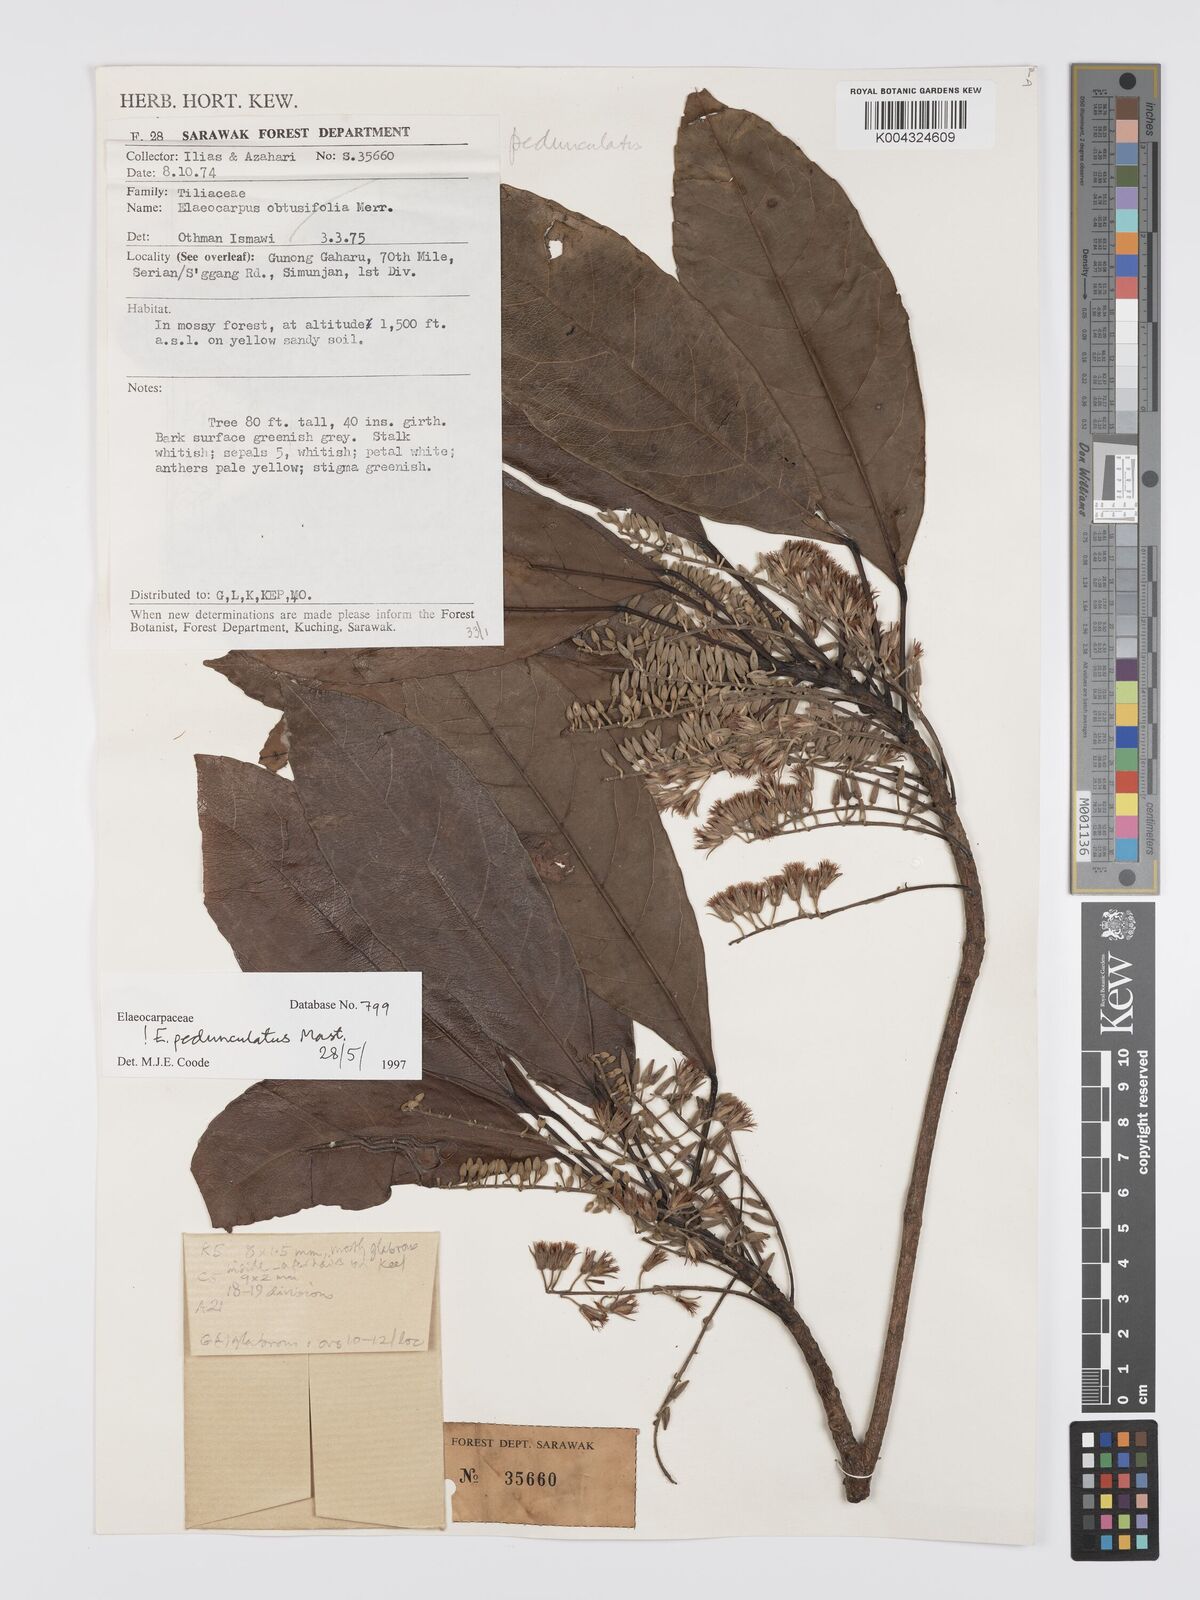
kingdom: Plantae
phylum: Tracheophyta
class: Magnoliopsida
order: Oxalidales
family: Elaeocarpaceae
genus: Elaeocarpus
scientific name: Elaeocarpus pedunculatus
